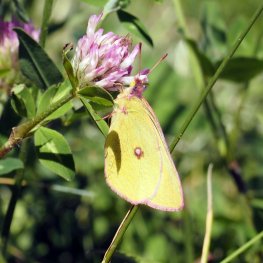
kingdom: Animalia
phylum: Arthropoda
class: Insecta
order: Lepidoptera
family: Pieridae
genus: Colias
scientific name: Colias interior
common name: Pink-edged Sulphur
